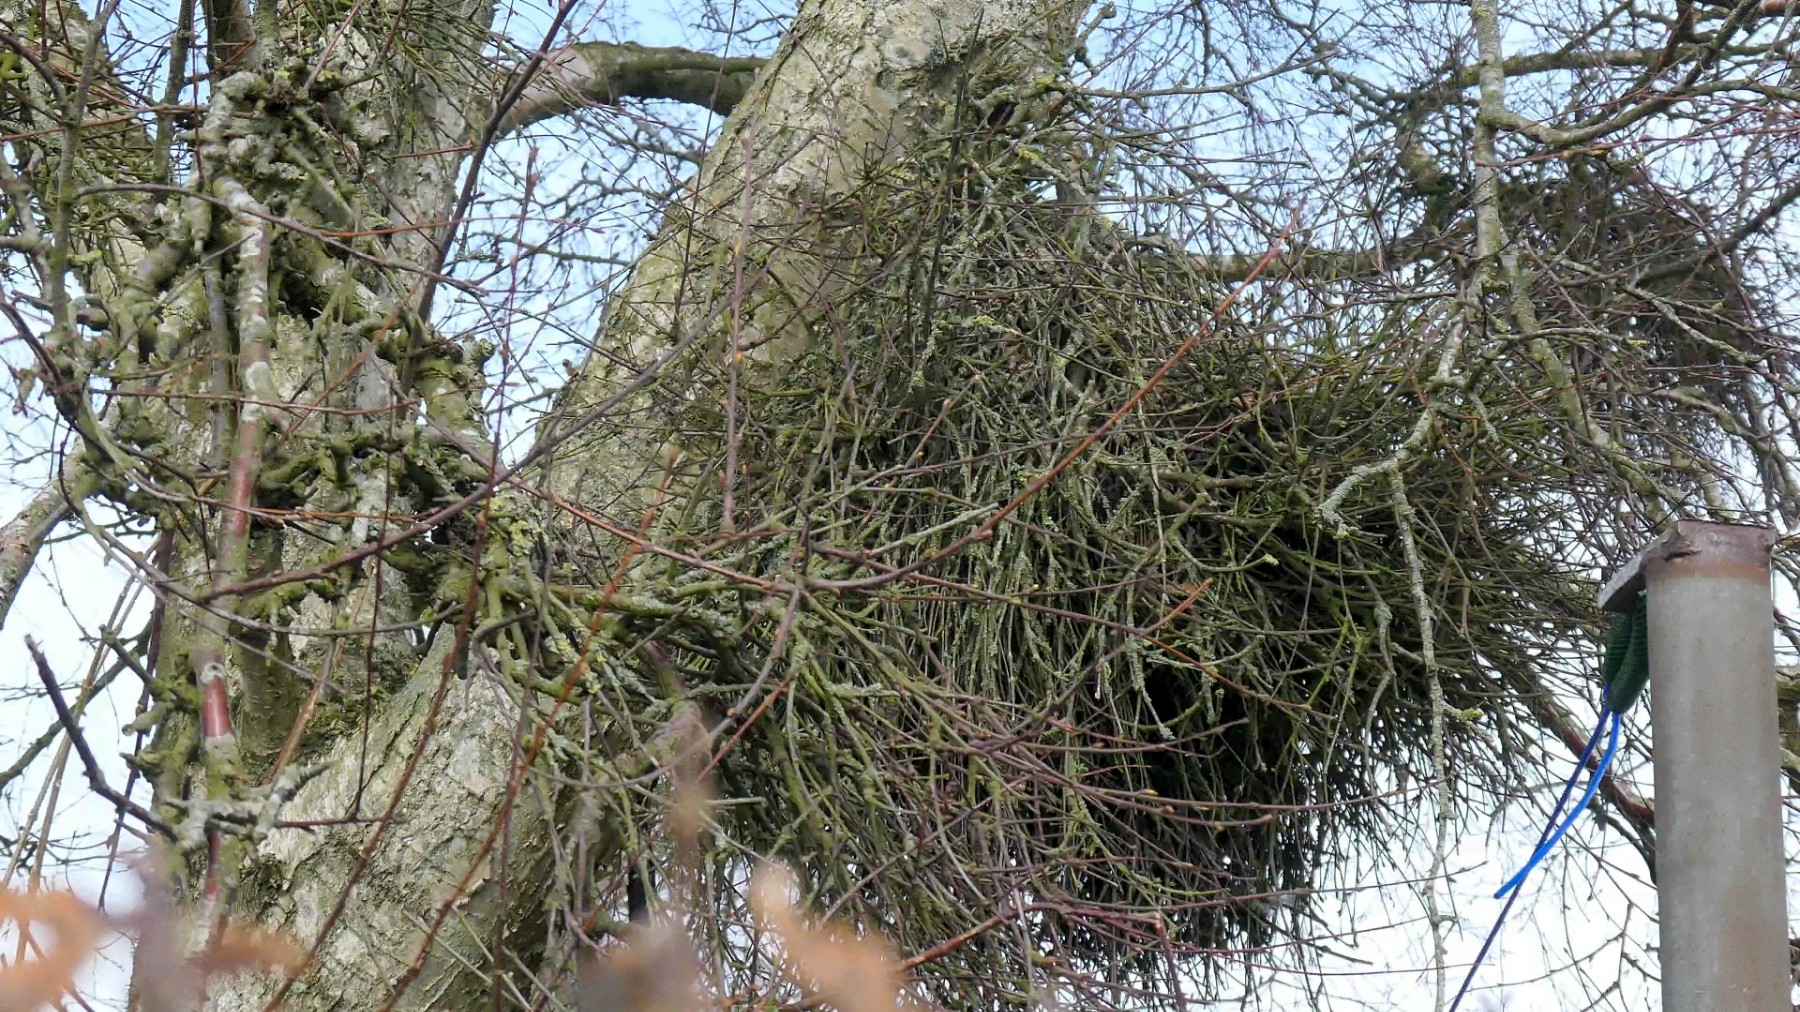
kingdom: Fungi
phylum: Ascomycota
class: Taphrinomycetes
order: Taphrinales
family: Taphrinaceae
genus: Taphrina
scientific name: Taphrina betulina
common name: hekse-sækdug
